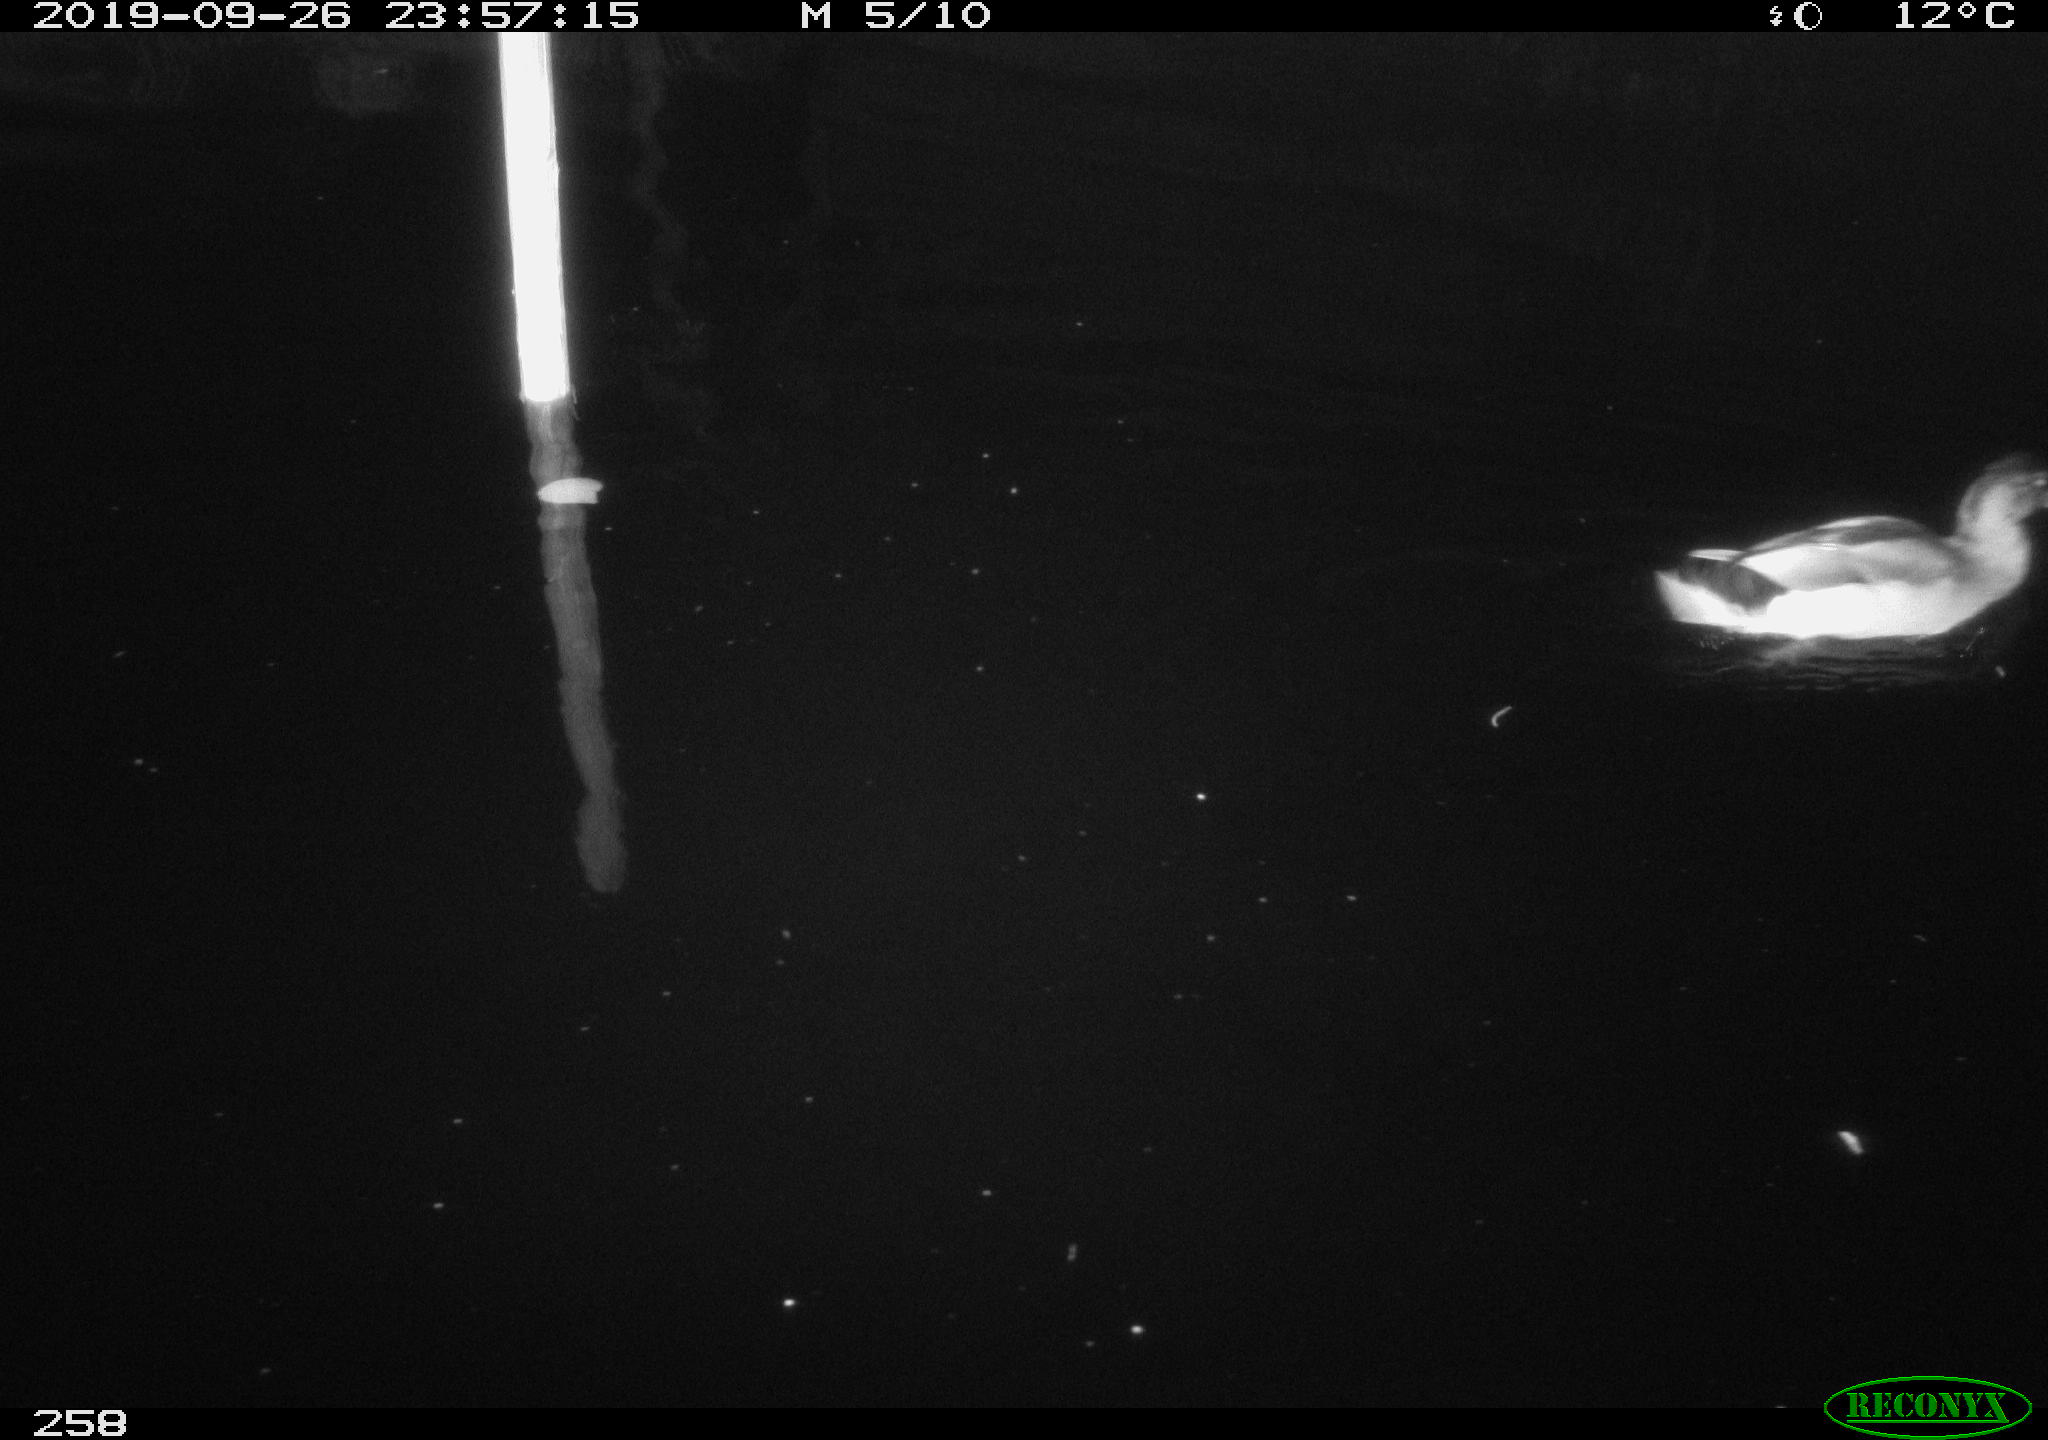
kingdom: Animalia
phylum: Chordata
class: Aves
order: Anseriformes
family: Anatidae
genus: Anas
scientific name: Anas platyrhynchos
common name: Mallard
